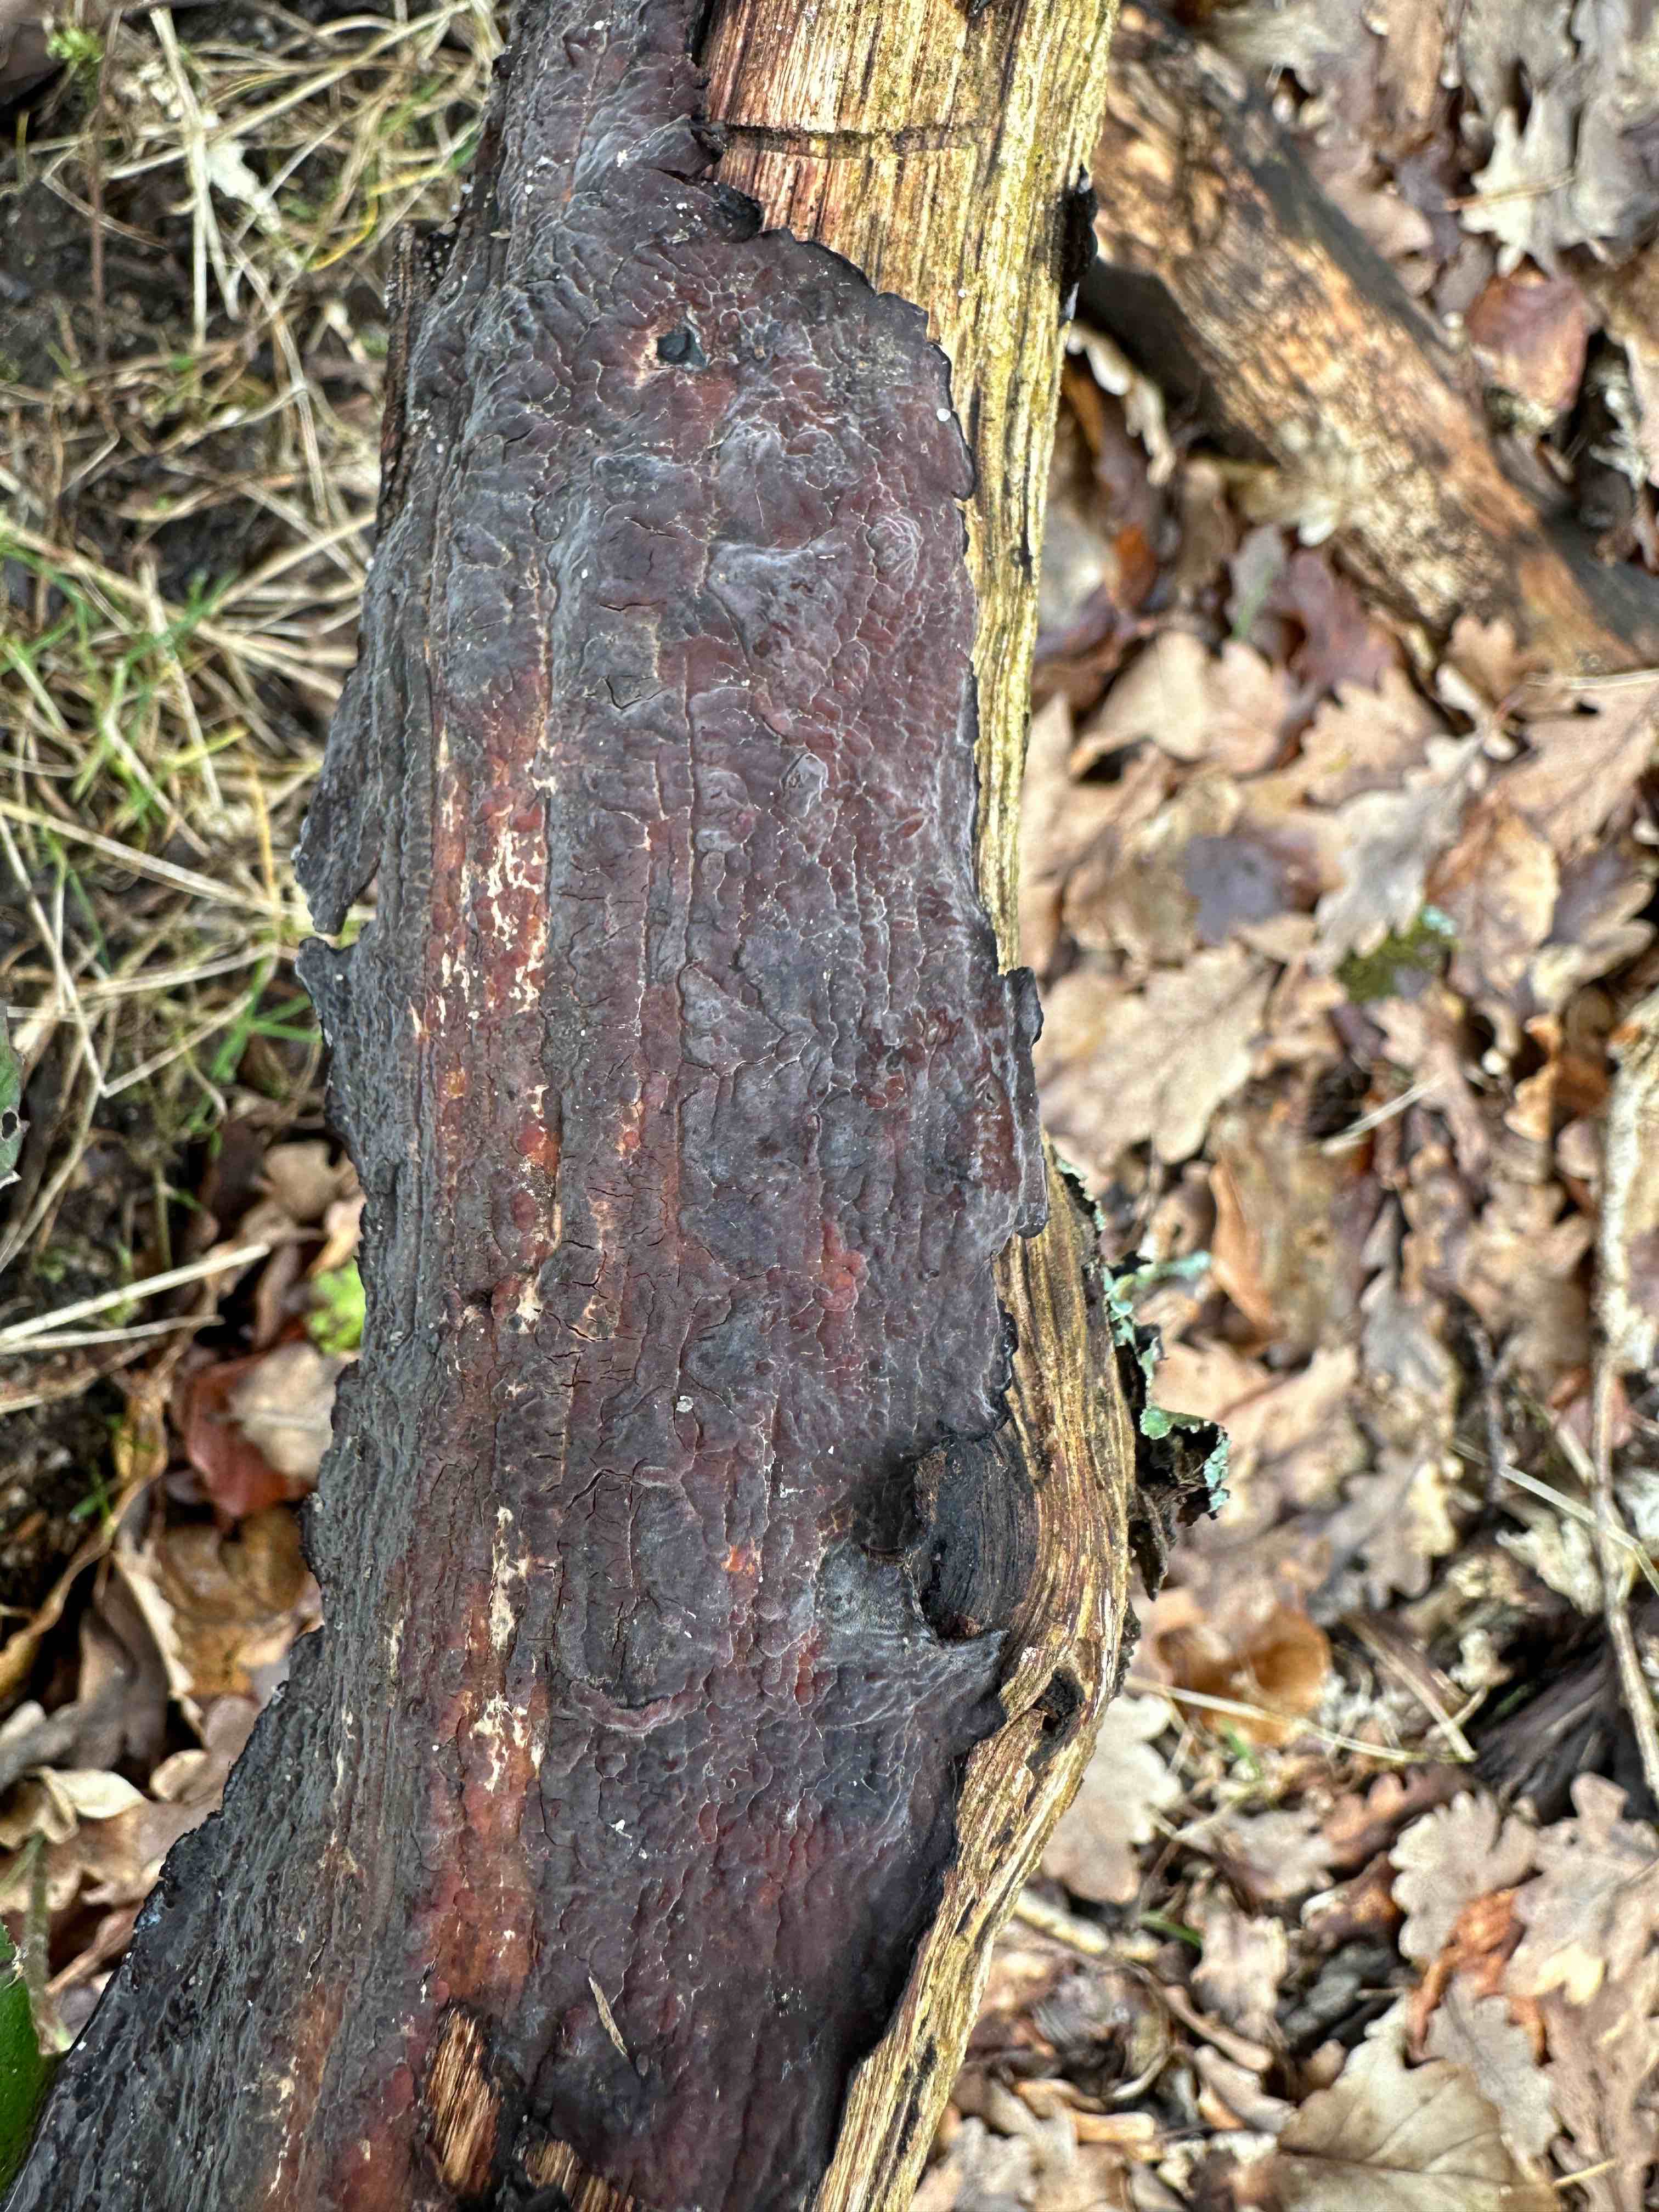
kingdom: Fungi
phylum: Basidiomycota
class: Agaricomycetes
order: Russulales
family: Peniophoraceae
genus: Peniophora
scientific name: Peniophora quercina
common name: ege-voksskind
